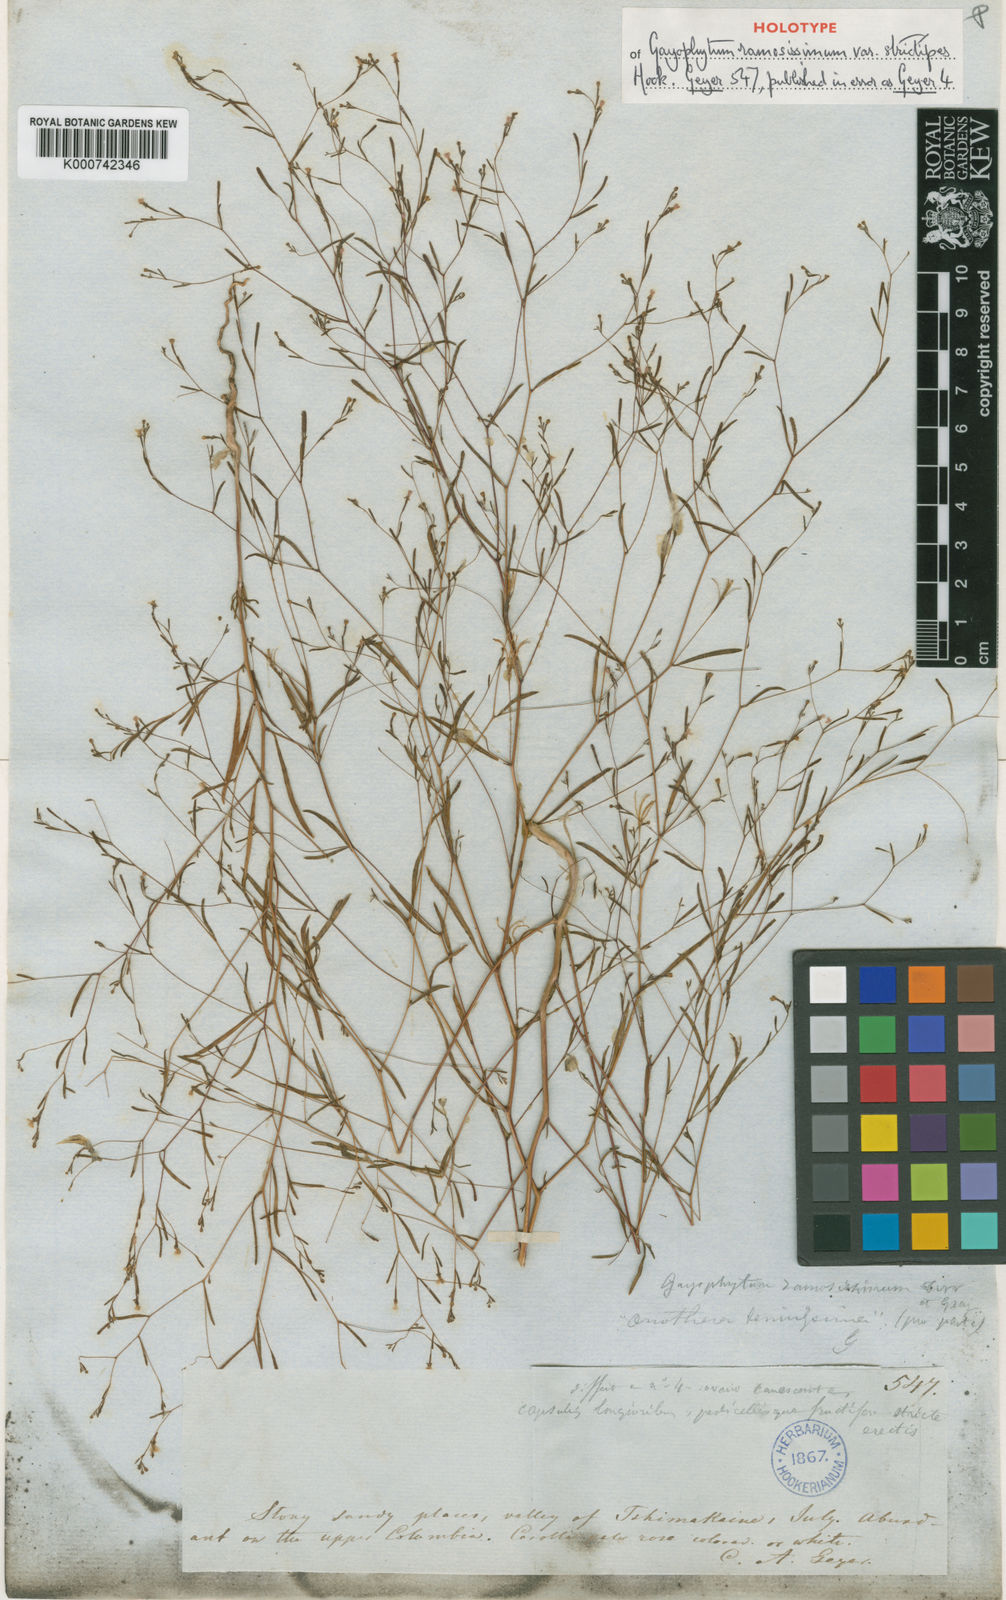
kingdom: Plantae
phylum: Tracheophyta
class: Magnoliopsida
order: Myrtales
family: Onagraceae
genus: Gayophytum
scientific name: Gayophytum diffusum
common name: Big-flowered groundsmoke
